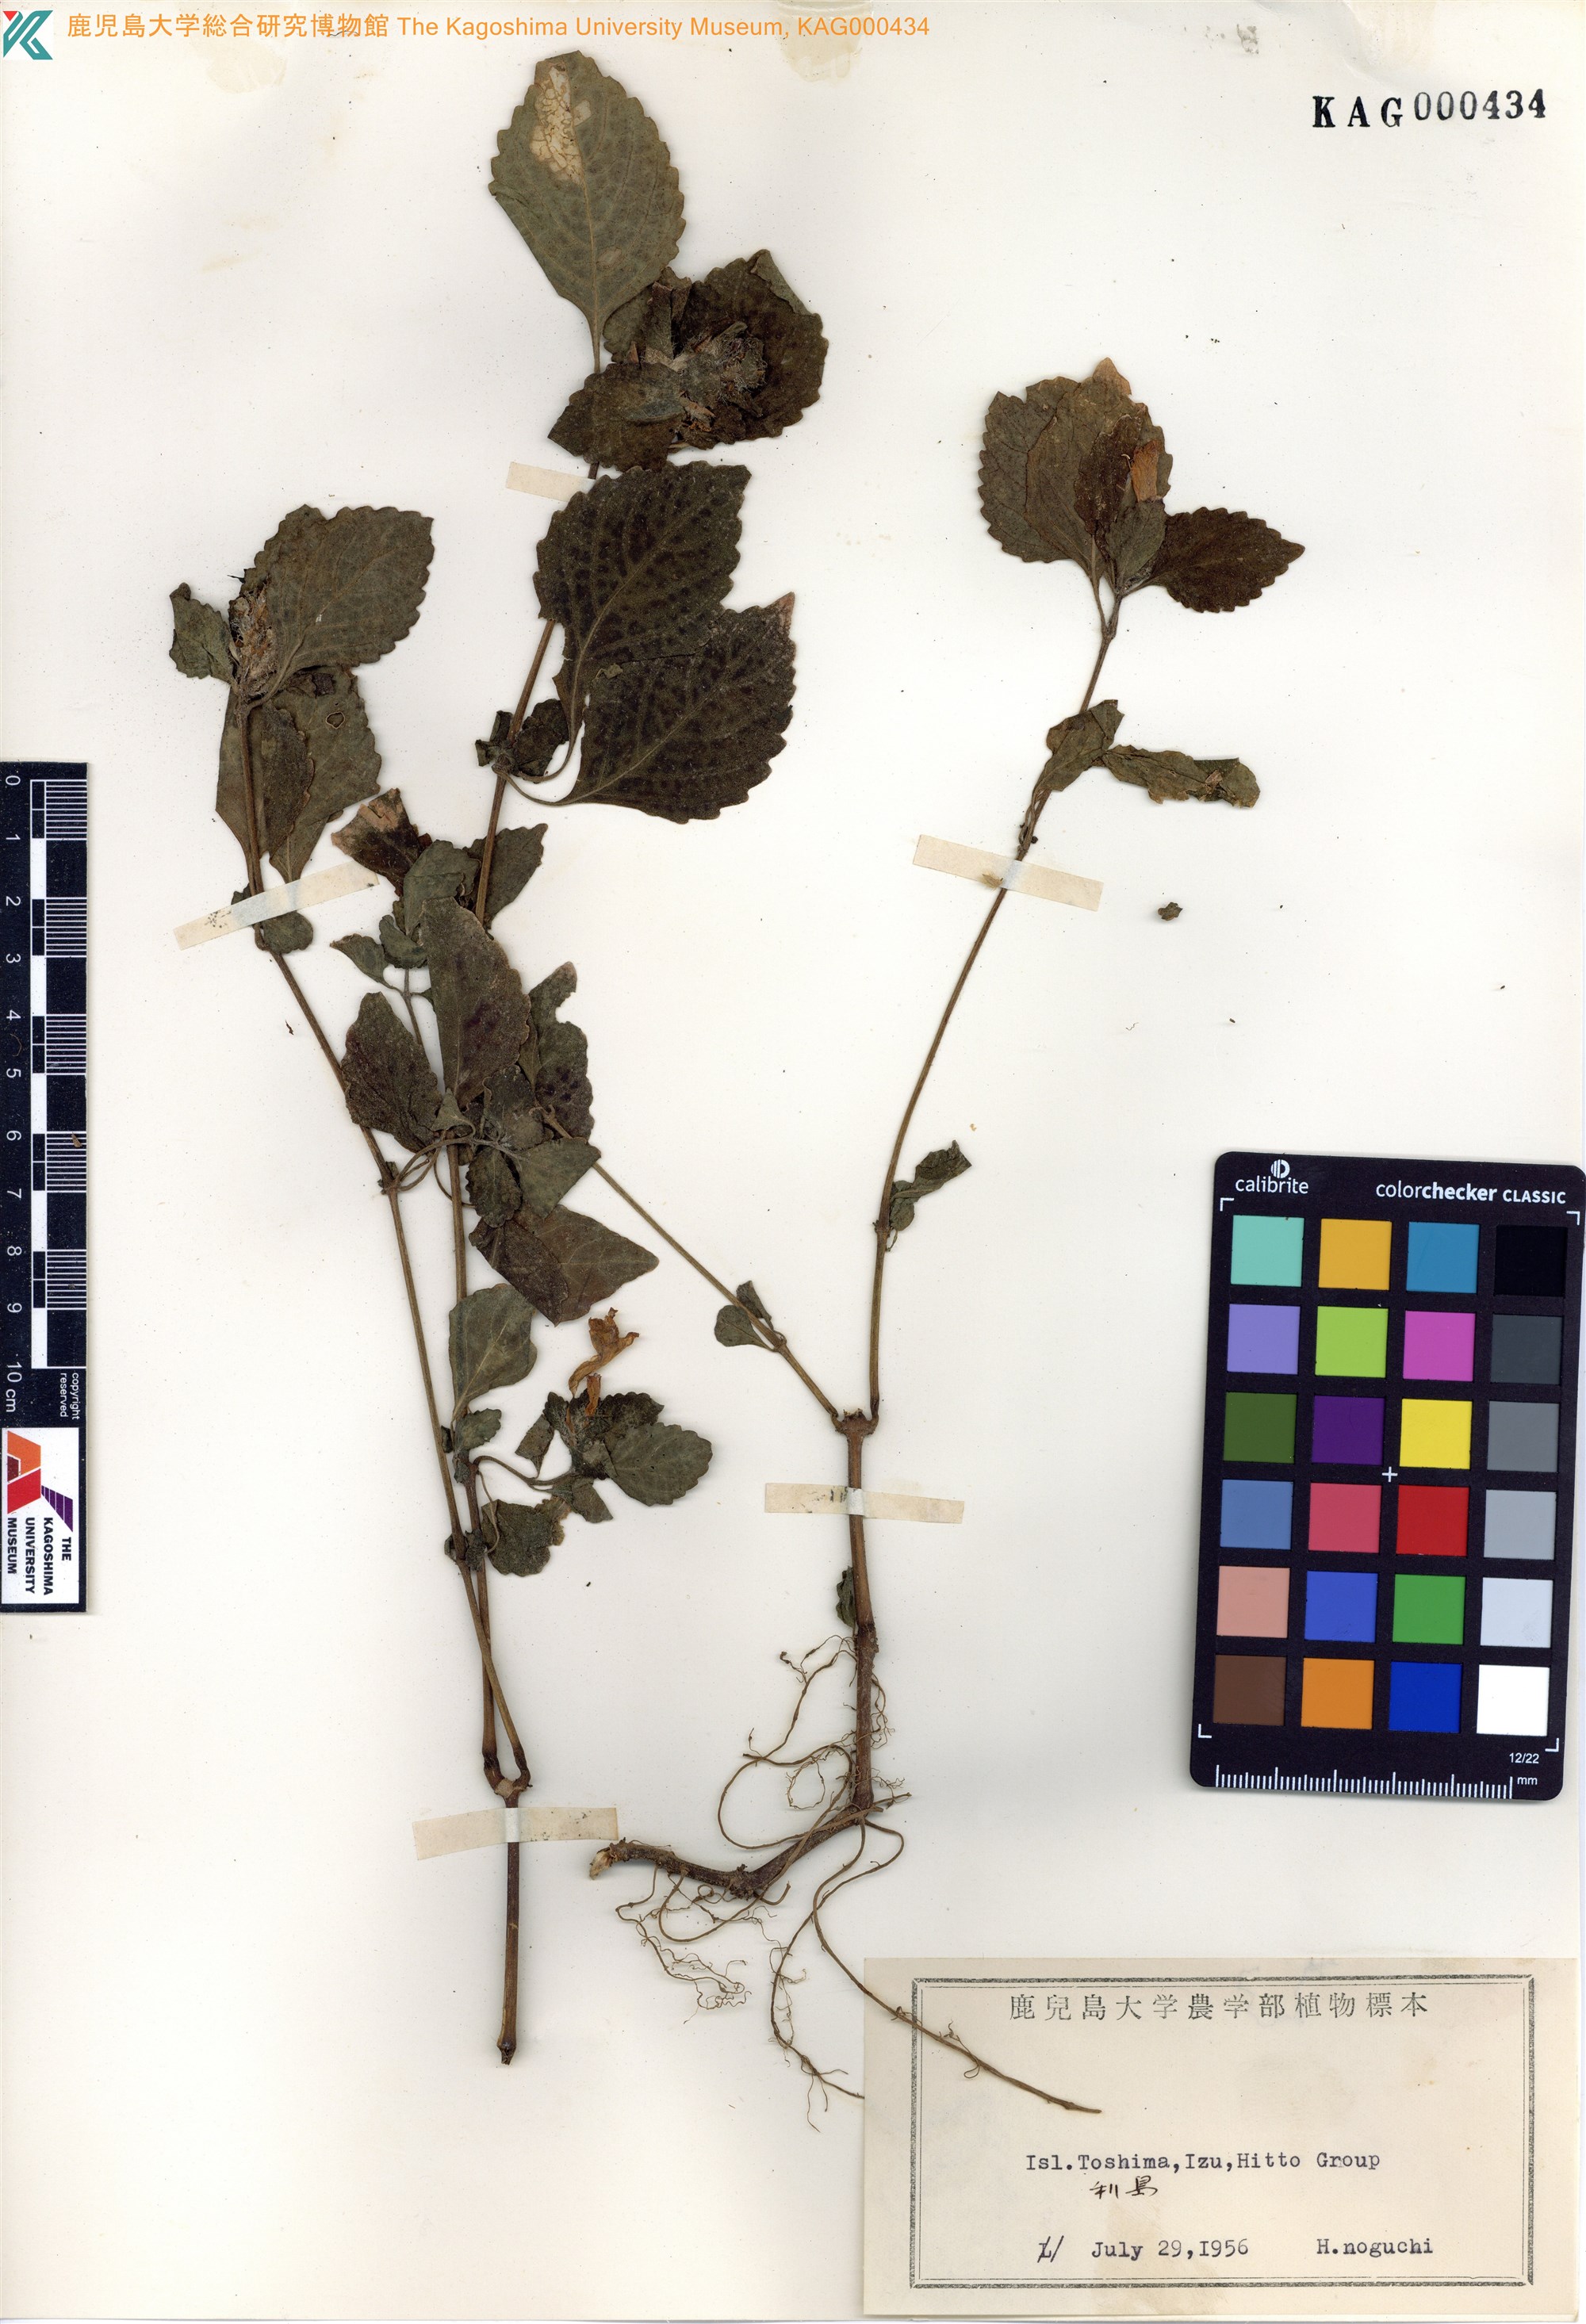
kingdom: Plantae
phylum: Tracheophyta
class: Magnoliopsida
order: Lamiales
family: Acanthaceae
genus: Strobilanthes
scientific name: Strobilanthes oligantha
